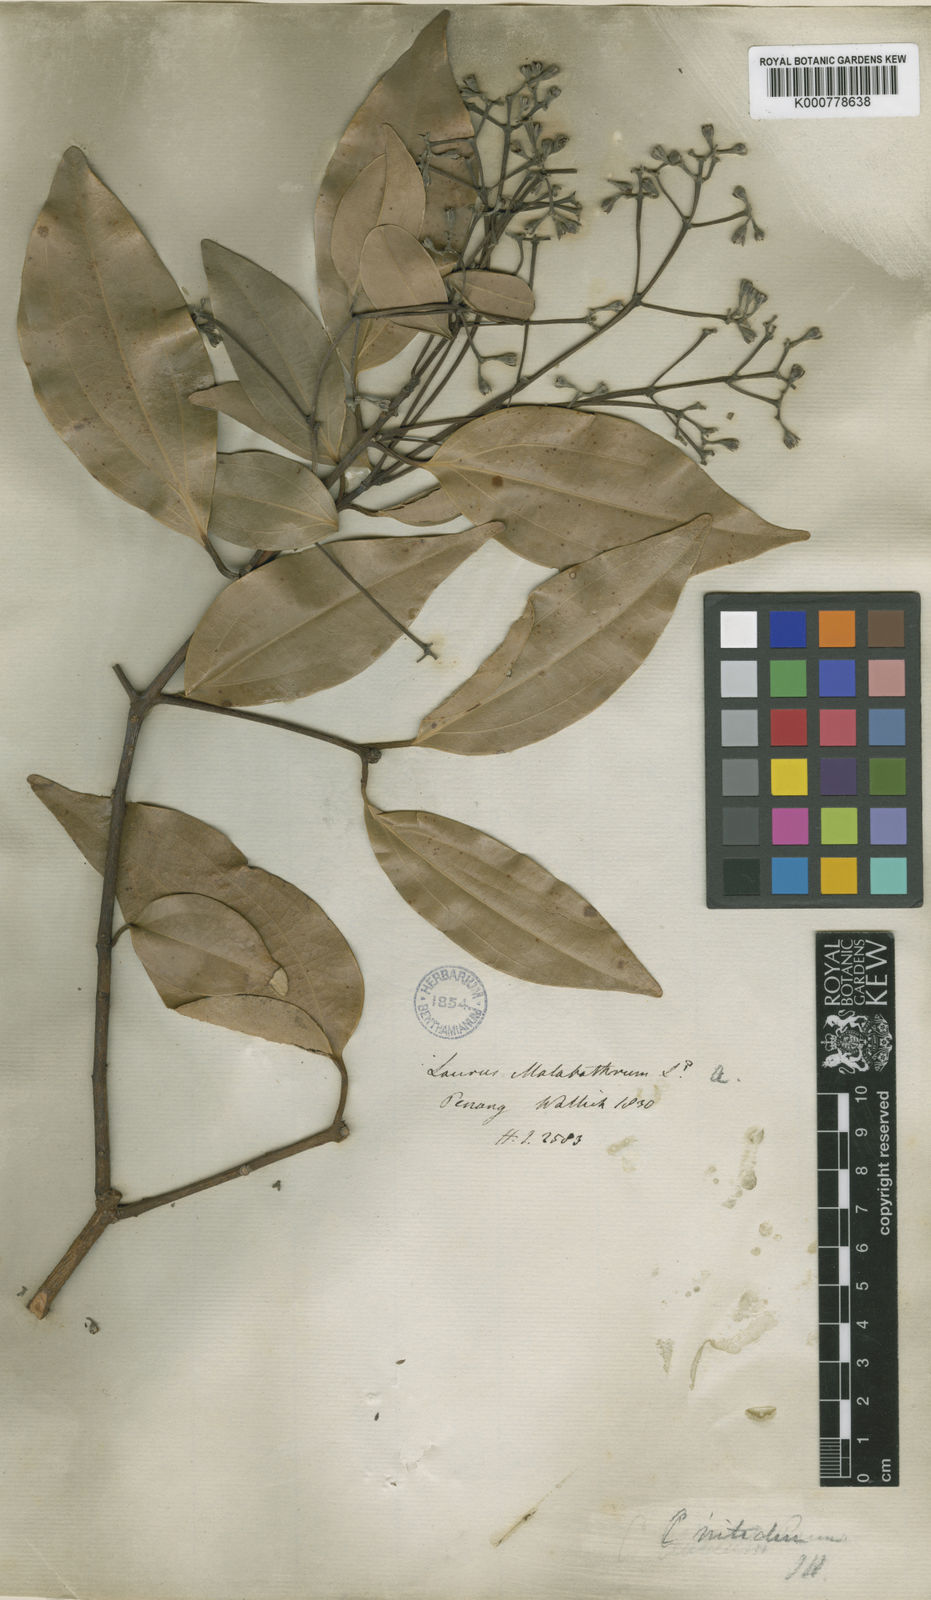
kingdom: Plantae
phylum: Tracheophyta
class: Magnoliopsida
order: Laurales
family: Lauraceae
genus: Cinnamomum
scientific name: Cinnamomum iners
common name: Wild cinnamon
